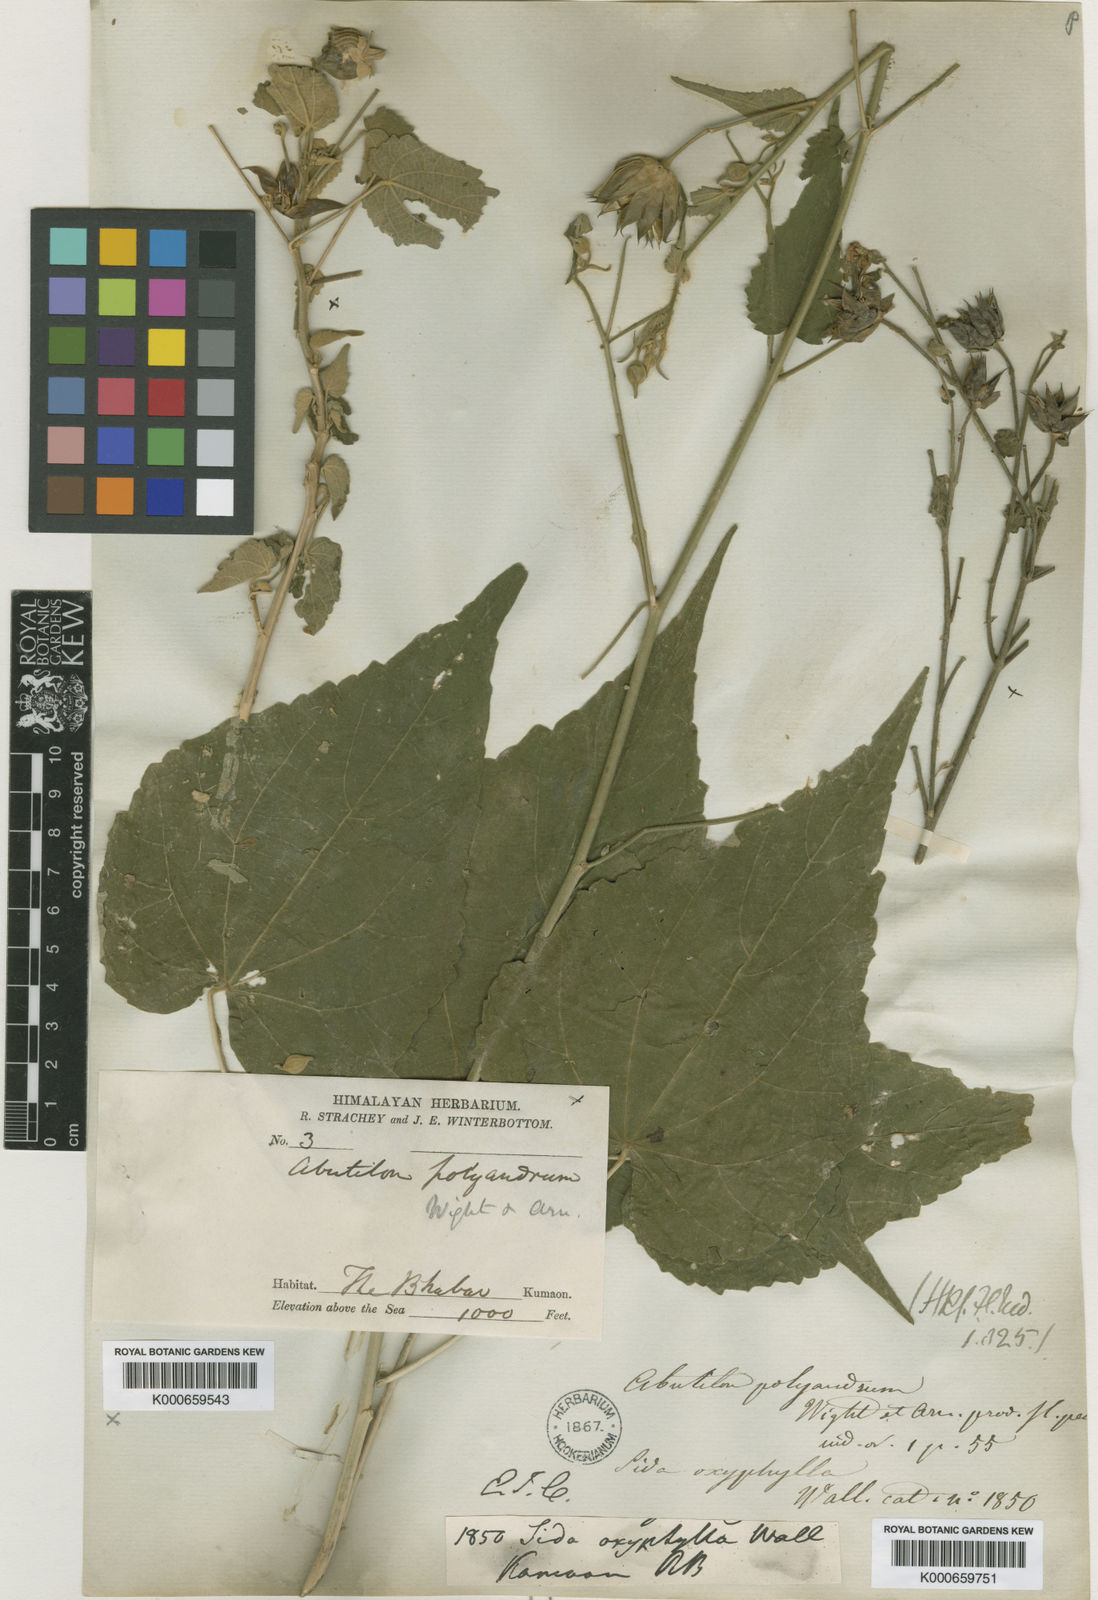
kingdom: Plantae
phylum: Tracheophyta
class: Magnoliopsida
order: Malvales
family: Malvaceae
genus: Abutilon
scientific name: Abutilon persicum
